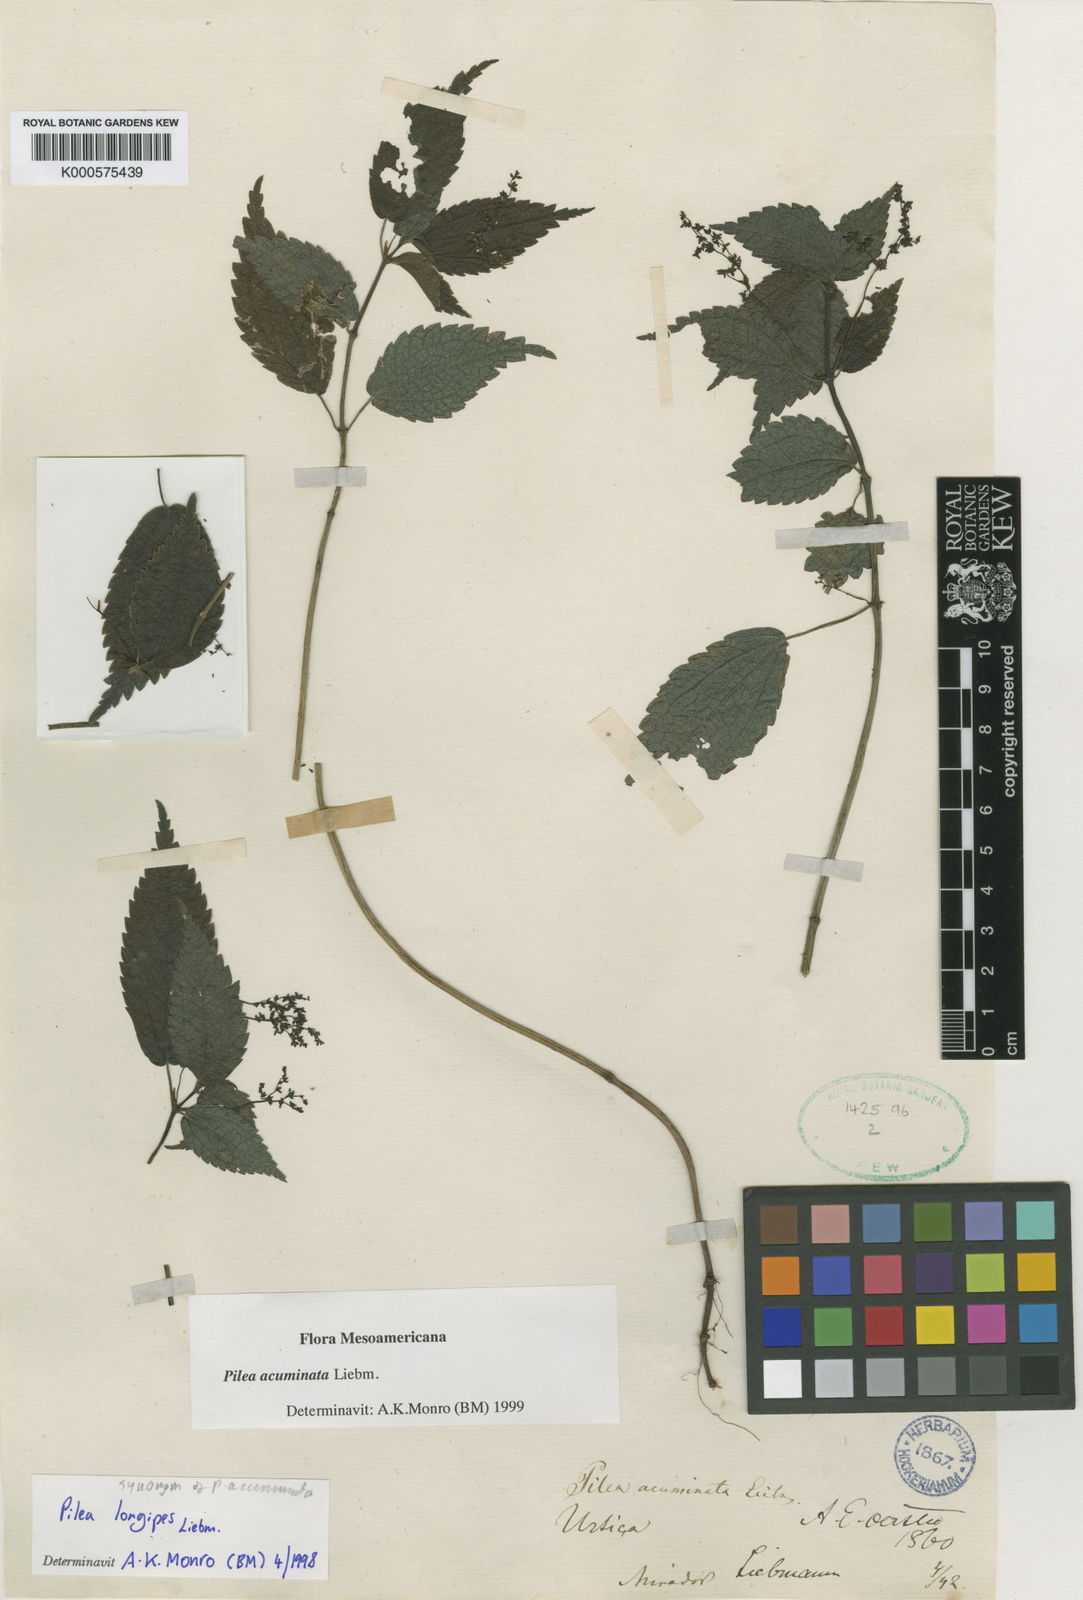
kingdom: Plantae
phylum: Tracheophyta
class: Magnoliopsida
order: Rosales
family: Urticaceae
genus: Pilea
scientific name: Pilea acuminata
